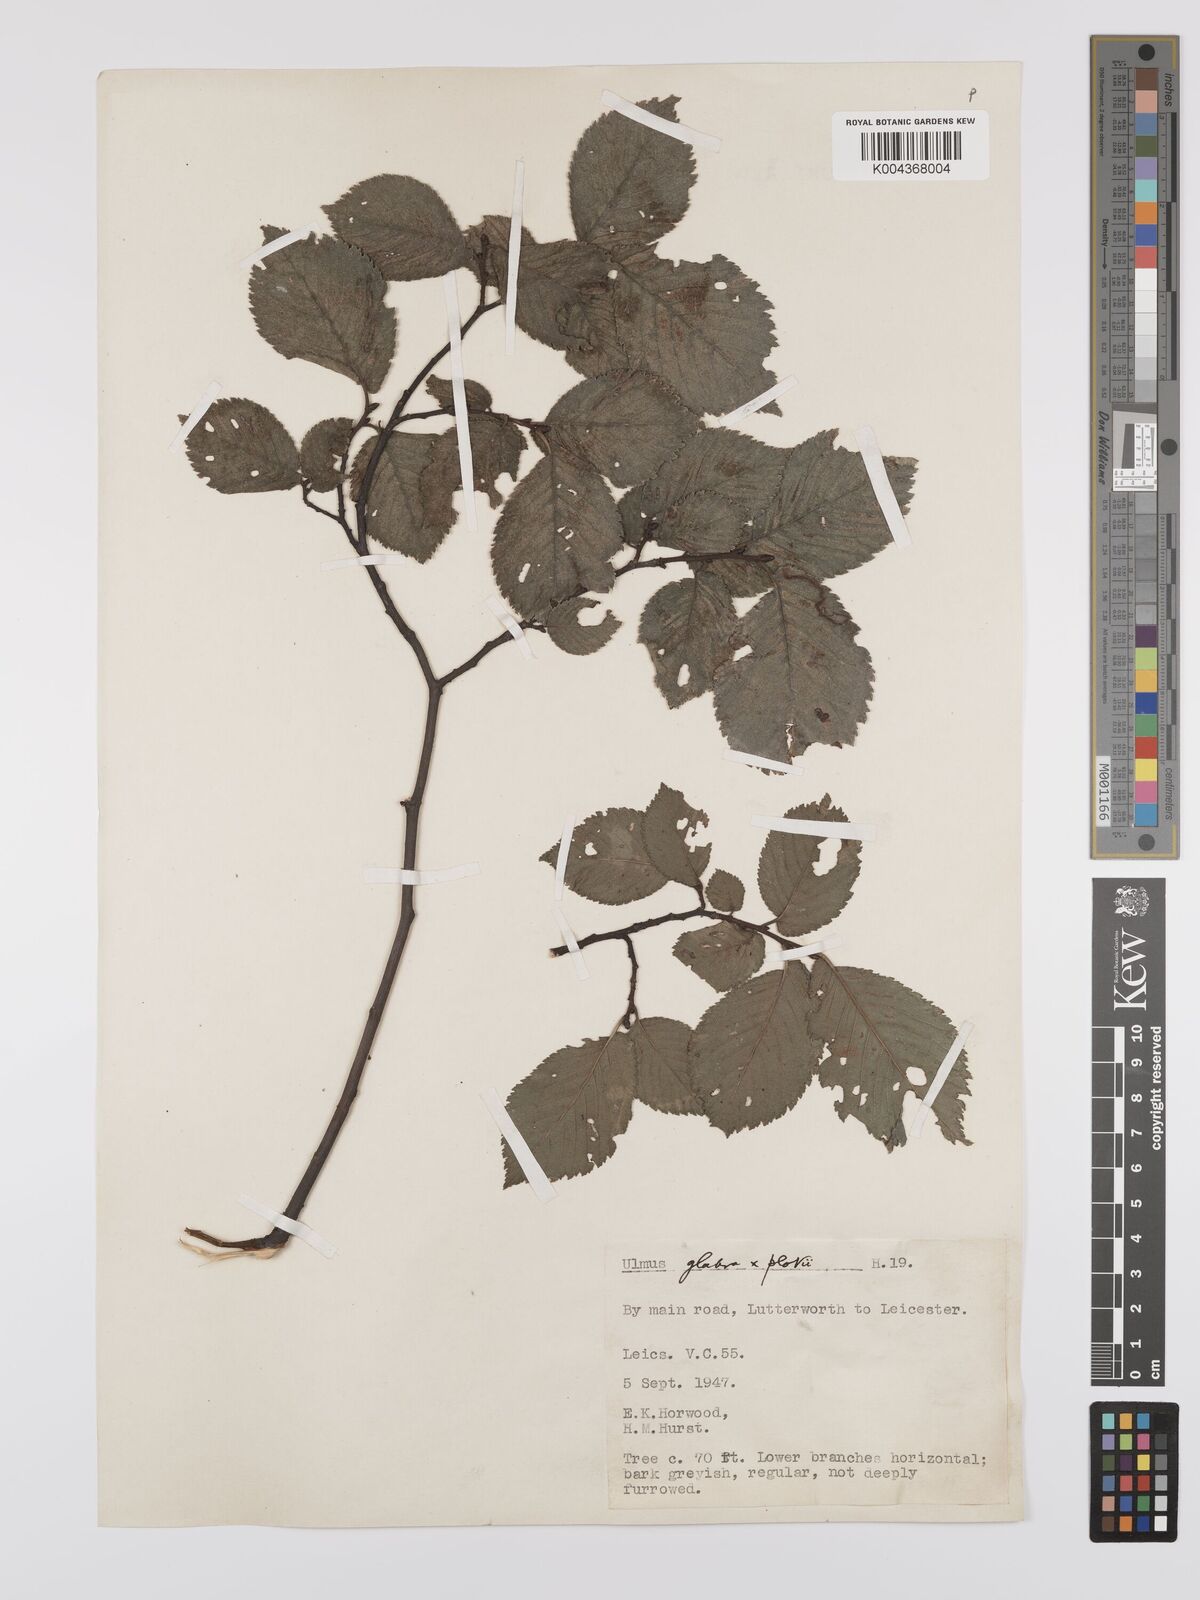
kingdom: Plantae
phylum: Tracheophyta
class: Magnoliopsida
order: Rosales
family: Ulmaceae
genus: Ulmus
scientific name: Ulmus
